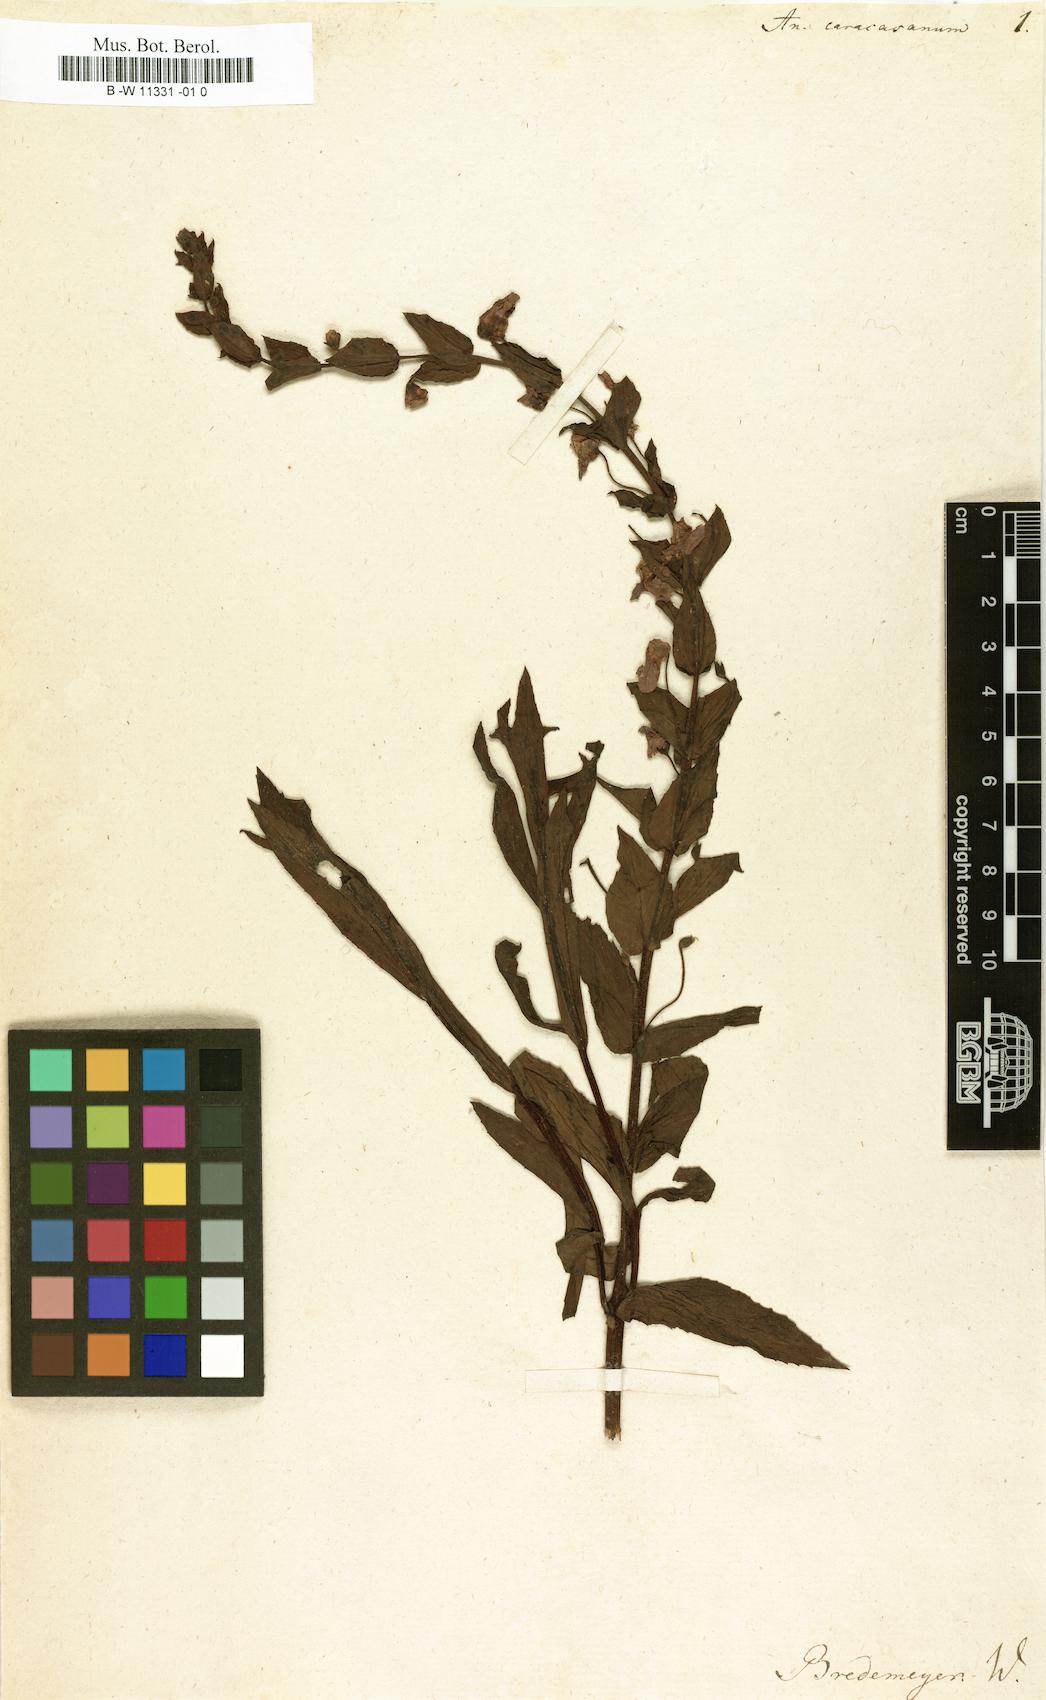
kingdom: Plantae
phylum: Tracheophyta
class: Magnoliopsida
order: Lamiales
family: Plantaginaceae
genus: Anarrhinum
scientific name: Anarrhinum
